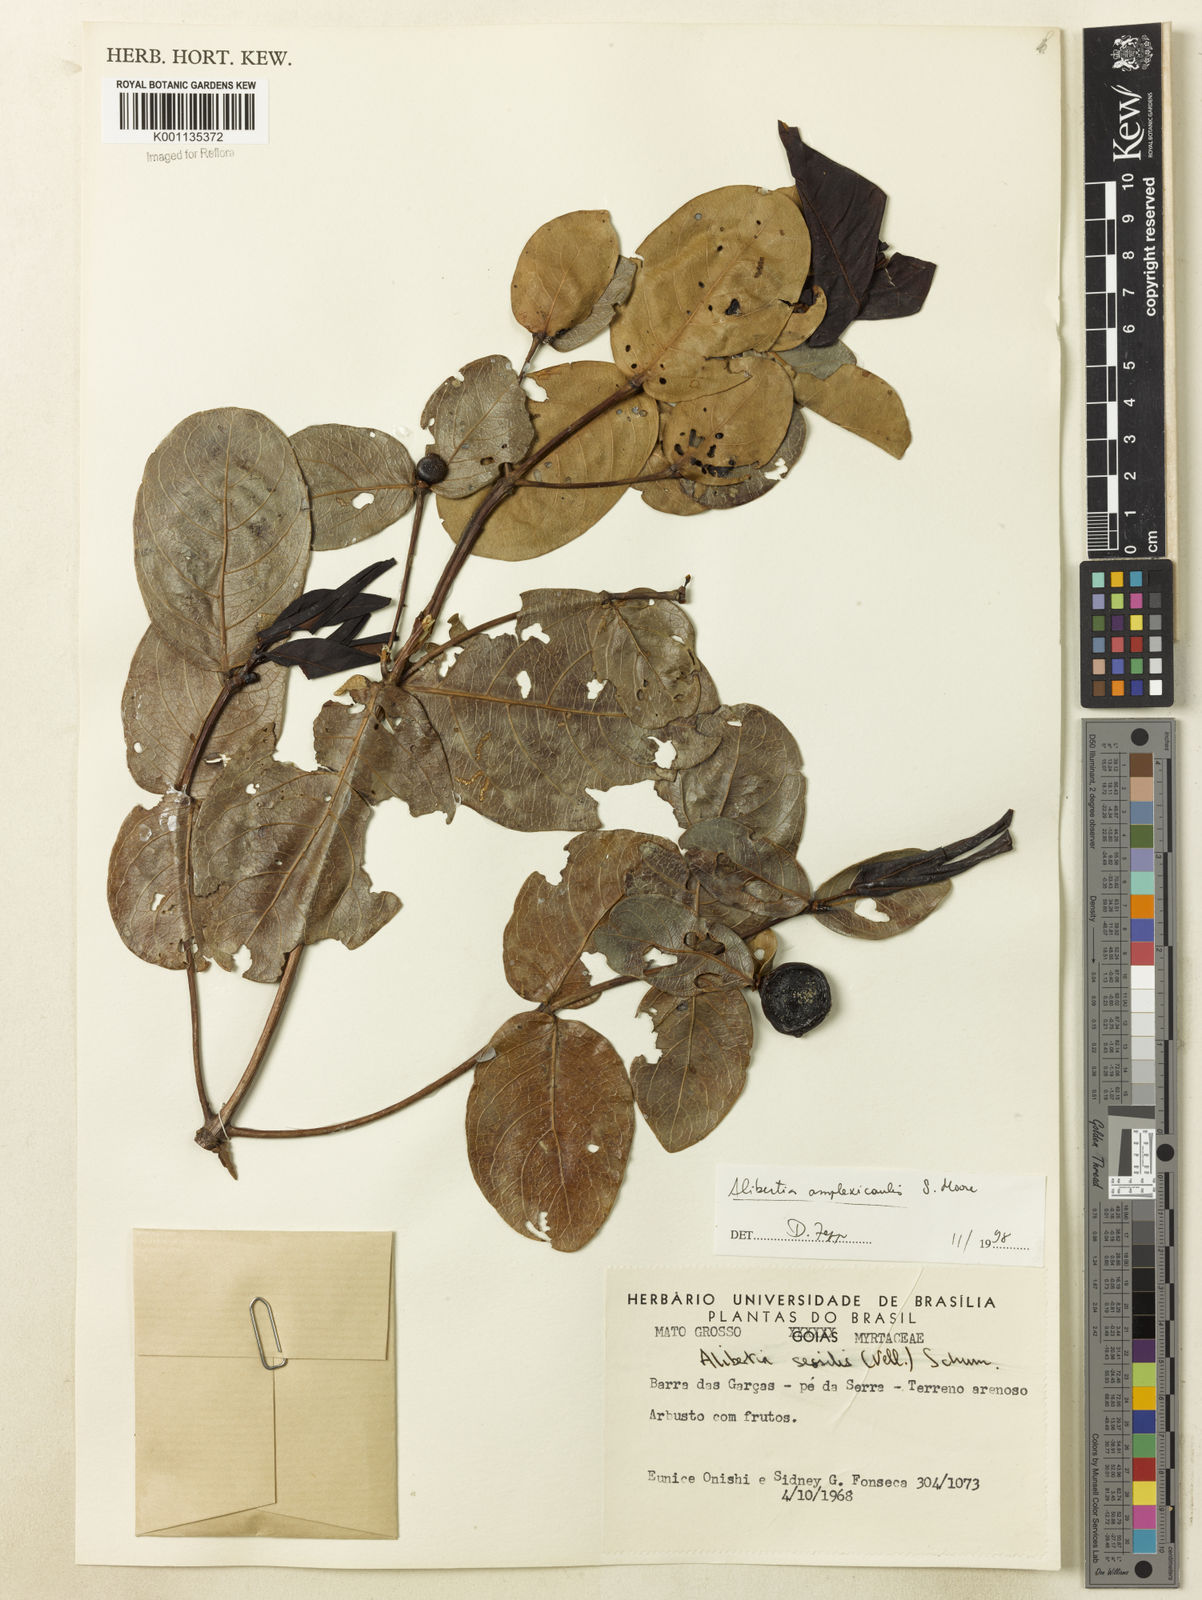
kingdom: Plantae
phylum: Tracheophyta
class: Magnoliopsida
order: Gentianales
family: Rubiaceae
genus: Cordiera
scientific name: Cordiera humilis
